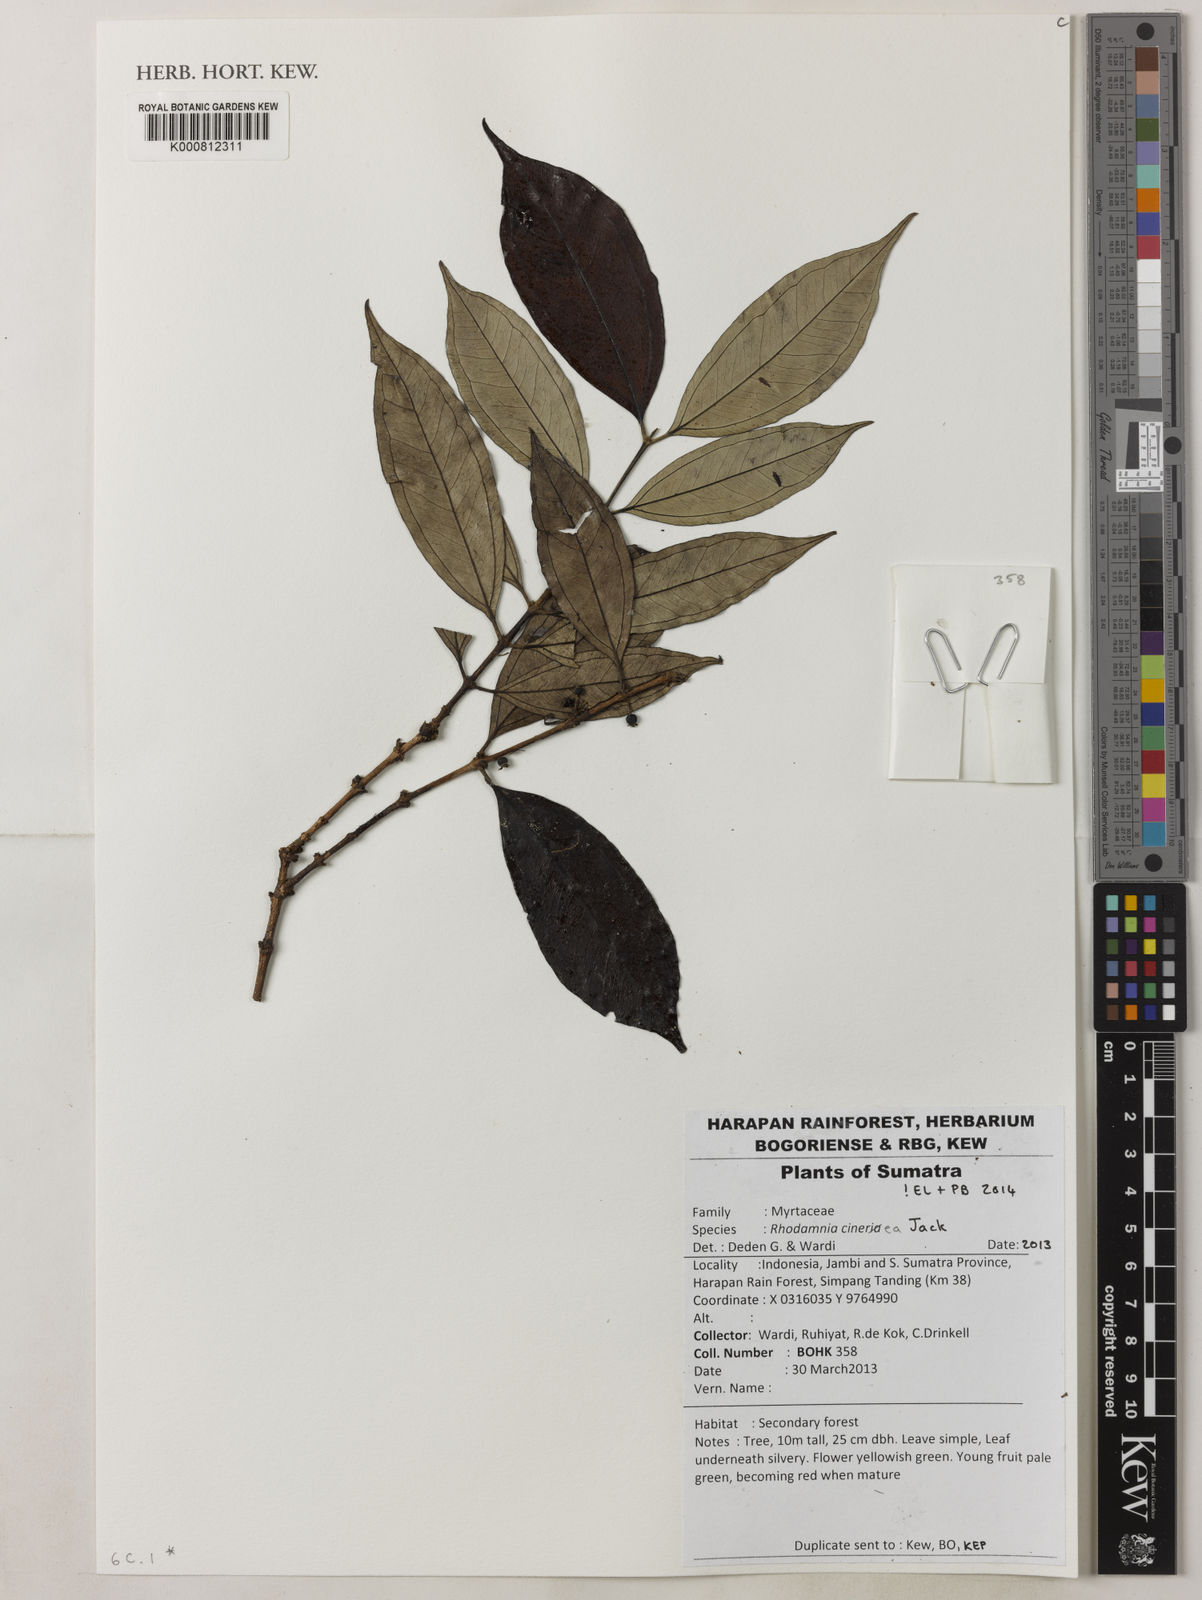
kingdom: Plantae
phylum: Tracheophyta
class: Magnoliopsida
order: Myrtales
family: Myrtaceae
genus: Rhodamnia
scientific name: Rhodamnia cinerea
